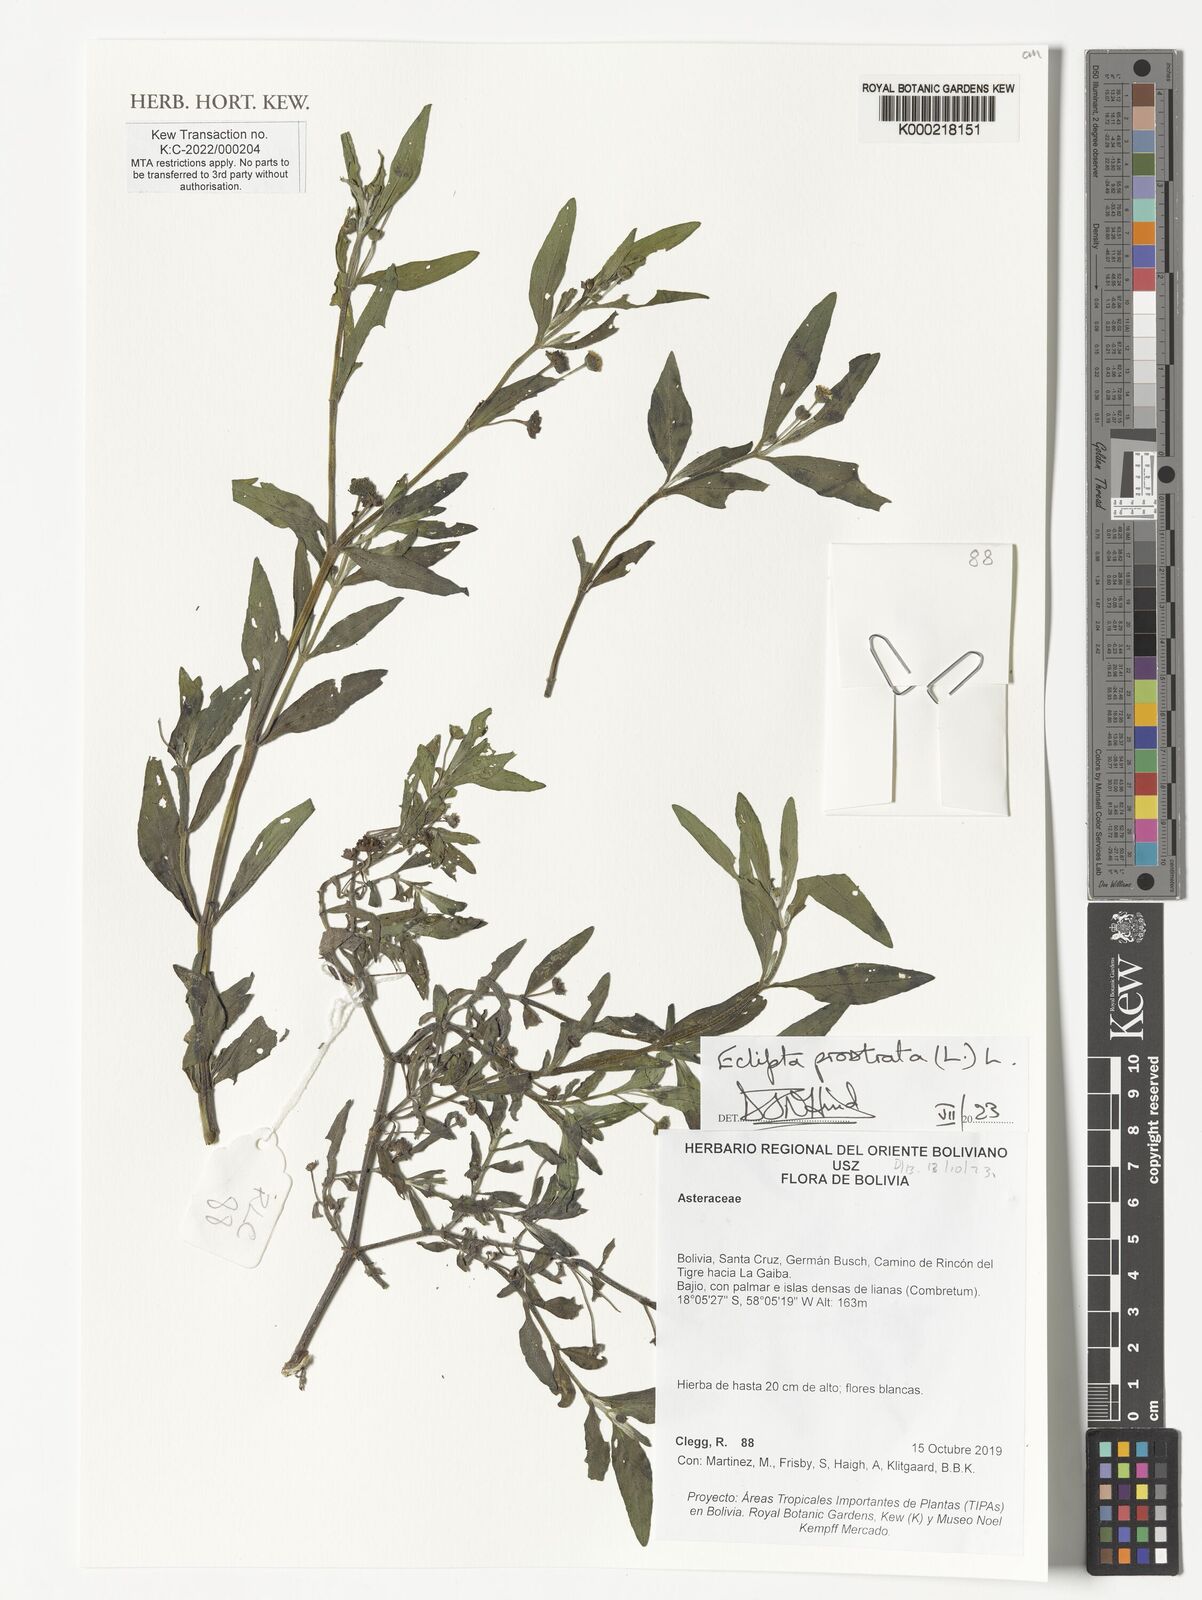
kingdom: Plantae
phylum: Tracheophyta
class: Magnoliopsida
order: Asterales
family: Asteraceae
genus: Eclipta
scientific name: Eclipta prostrata
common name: False daisy
